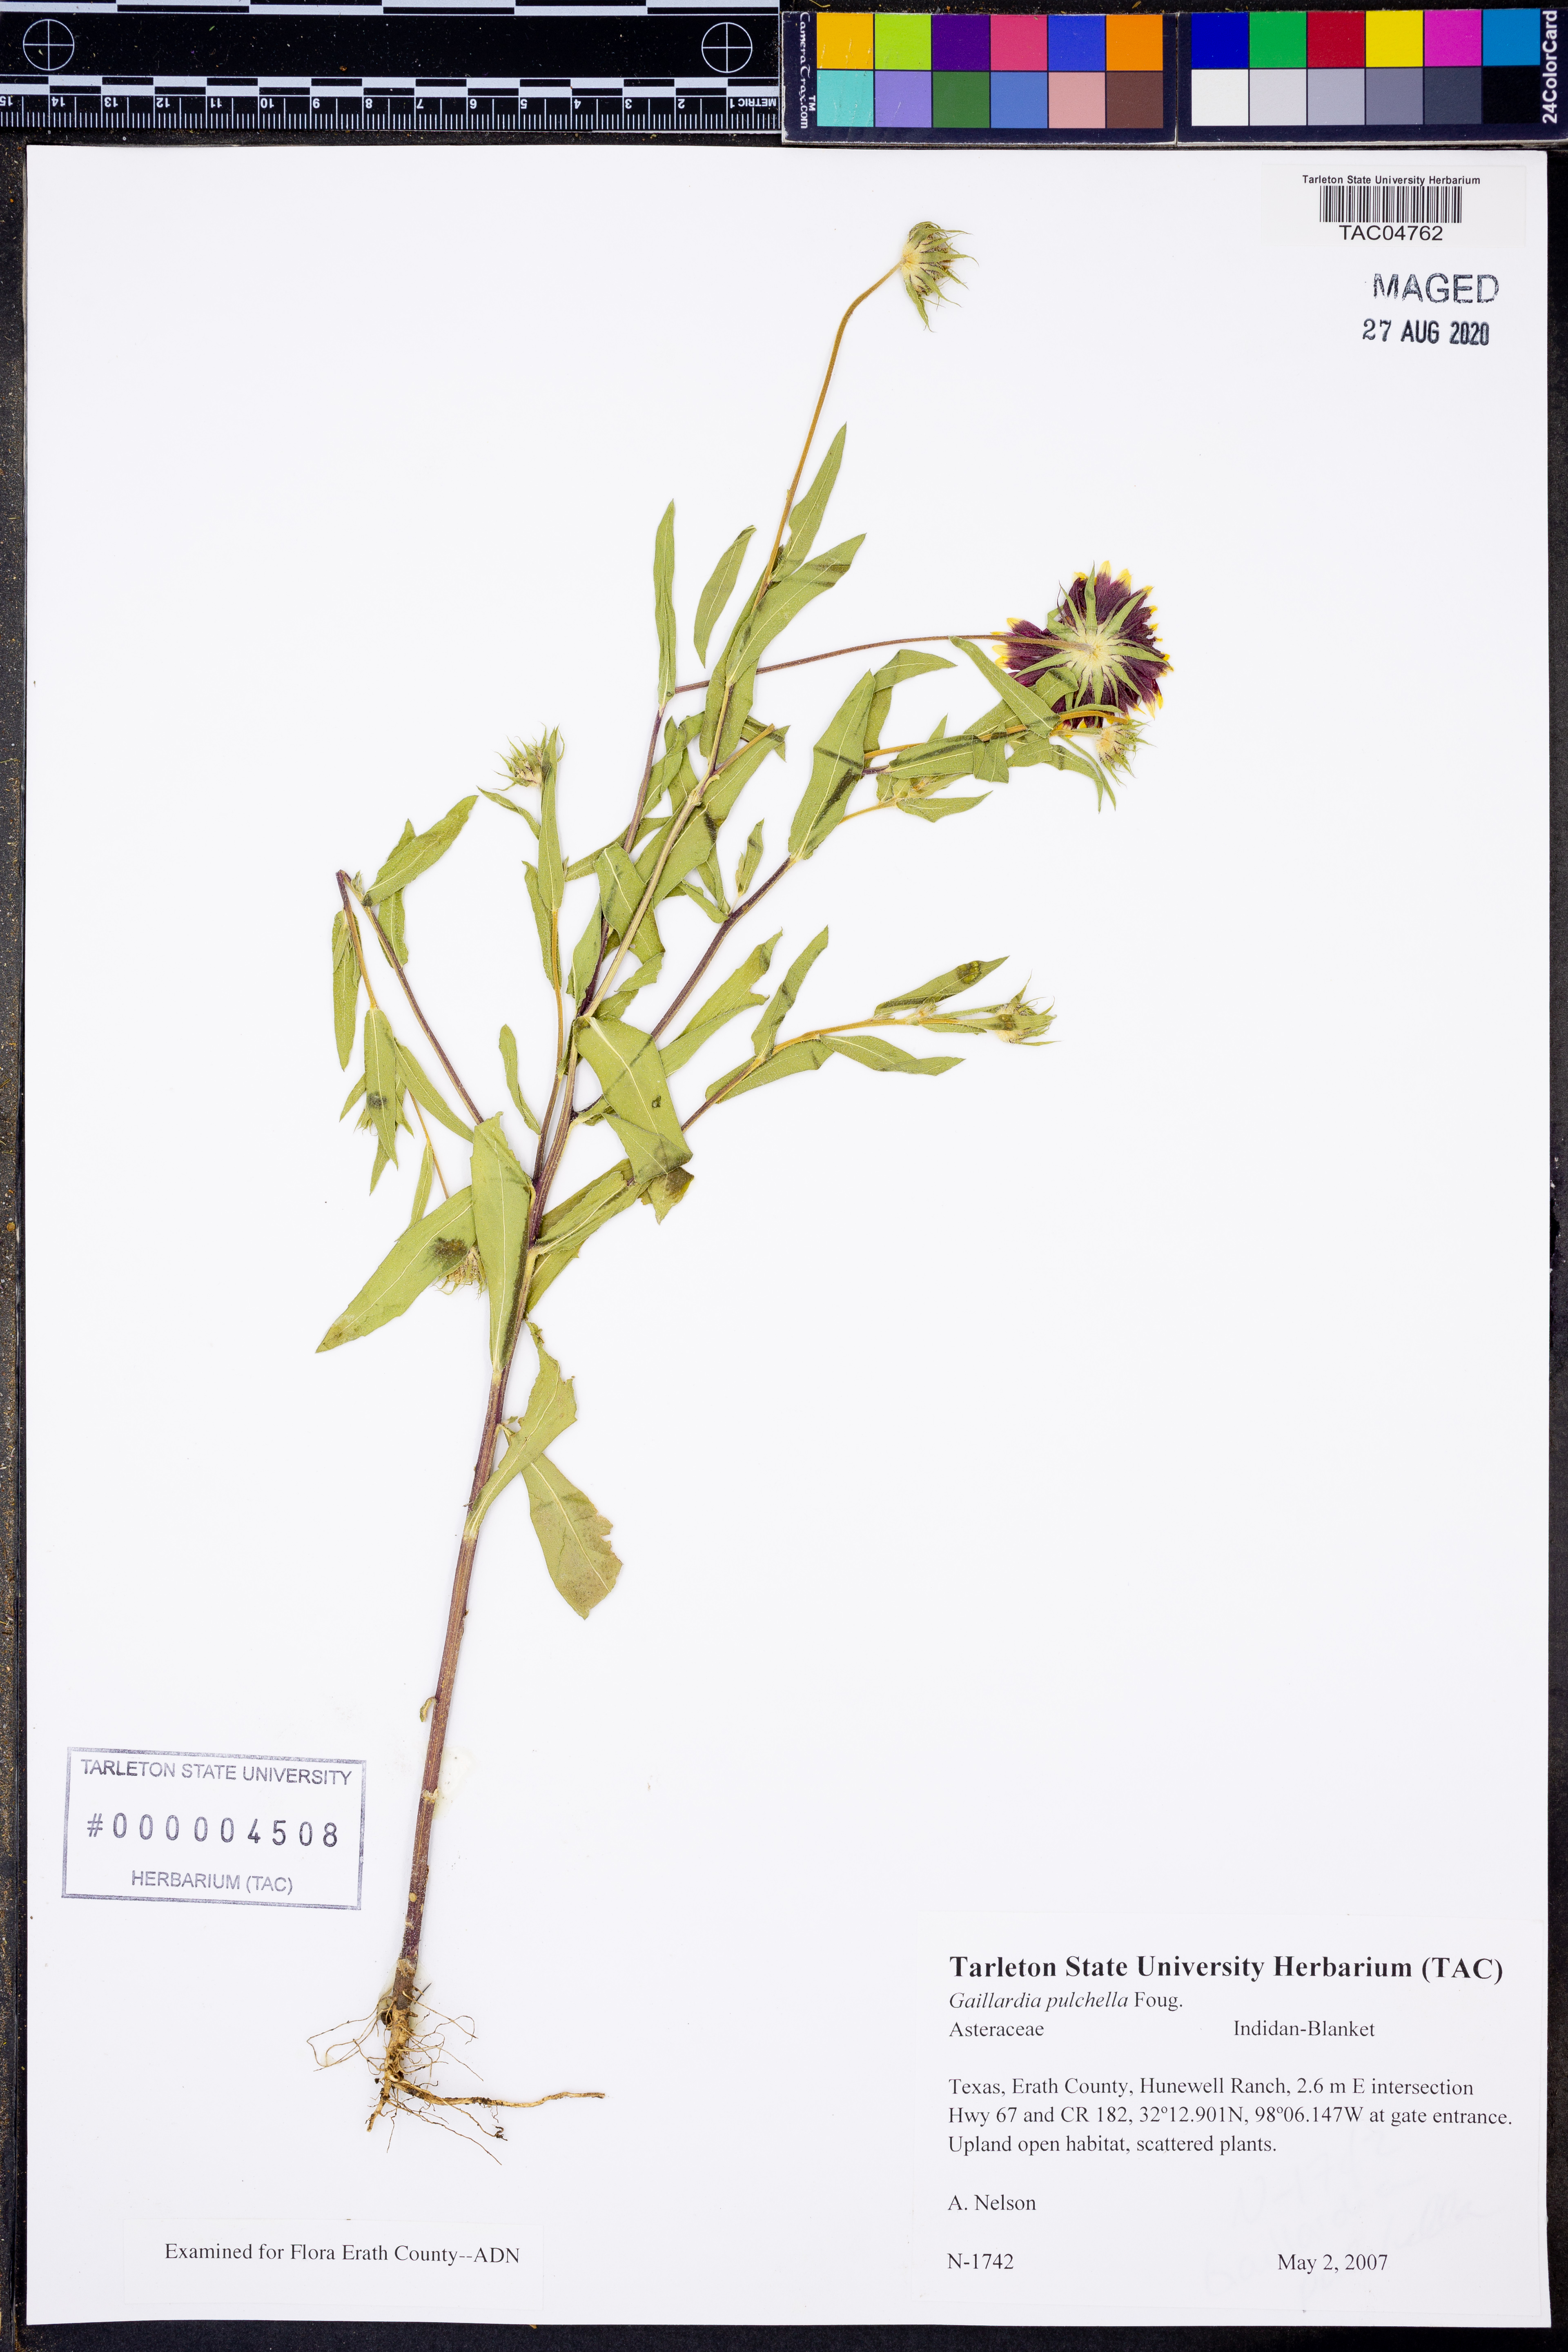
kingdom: Plantae
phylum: Tracheophyta
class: Magnoliopsida
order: Asterales
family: Asteraceae
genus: Gaillardia
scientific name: Gaillardia pulchella
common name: Firewheel
